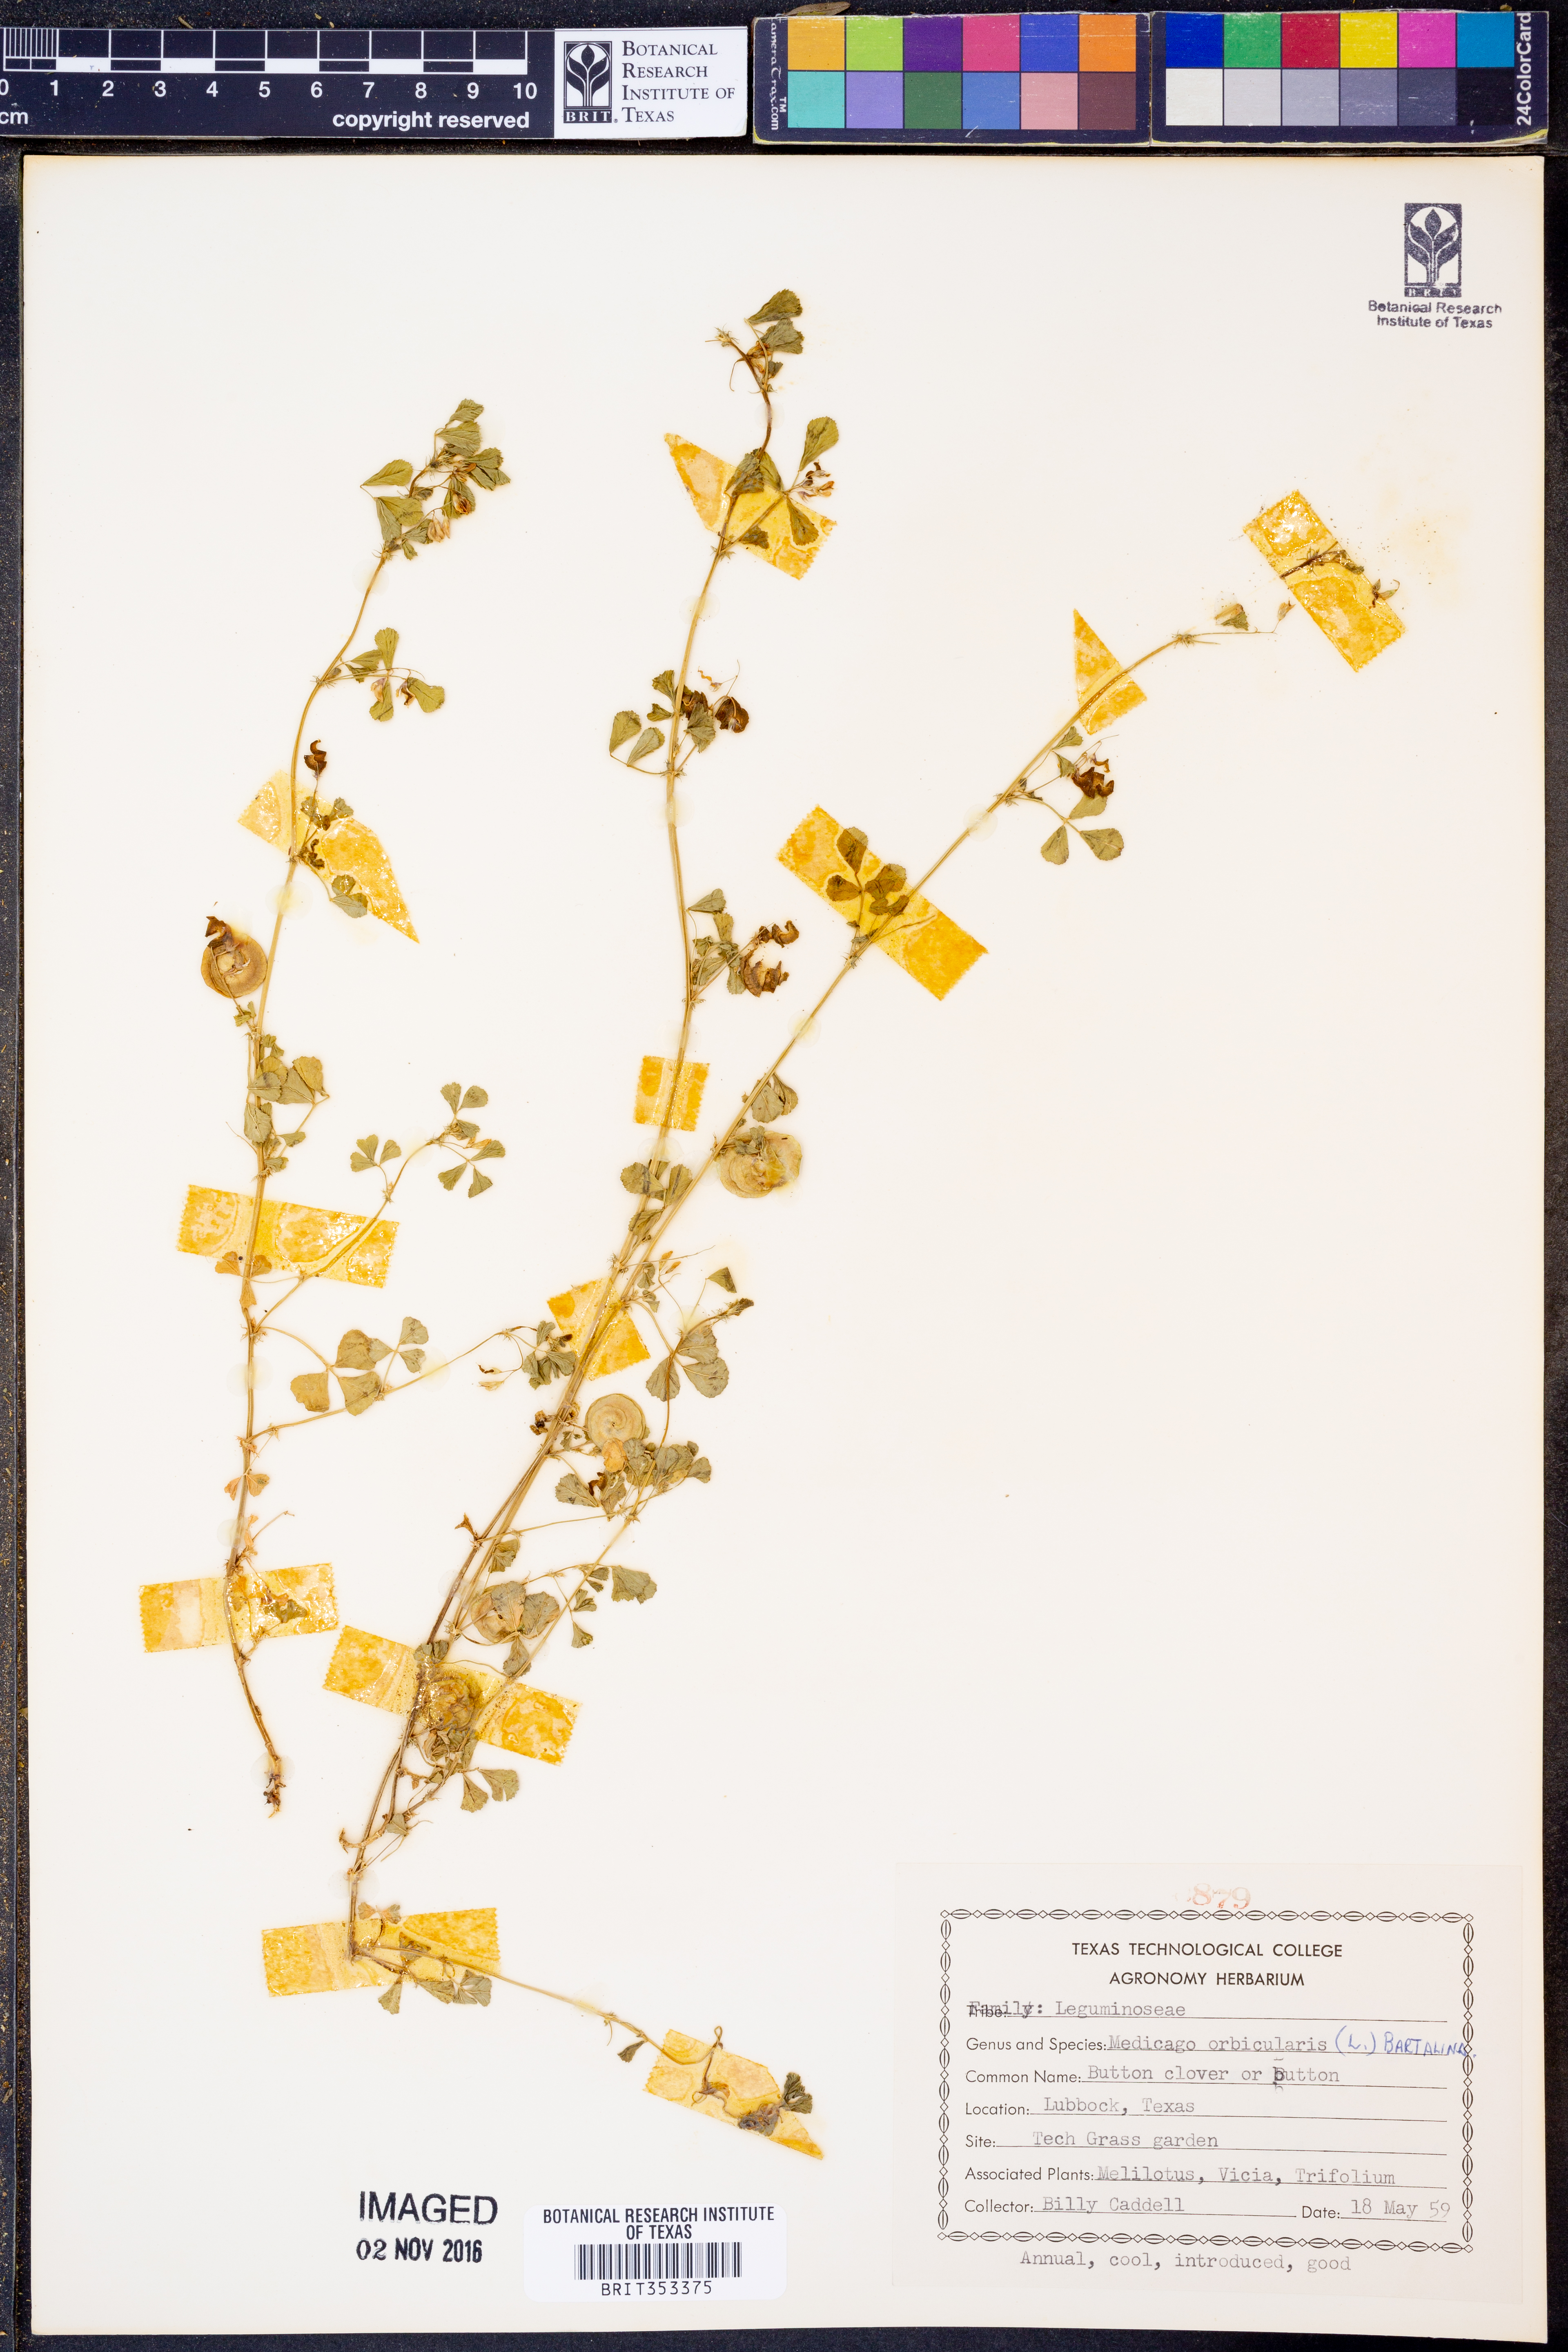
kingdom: Plantae
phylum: Tracheophyta
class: Magnoliopsida
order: Fabales
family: Fabaceae
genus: Medicago
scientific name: Medicago orbicularis
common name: Button medick
